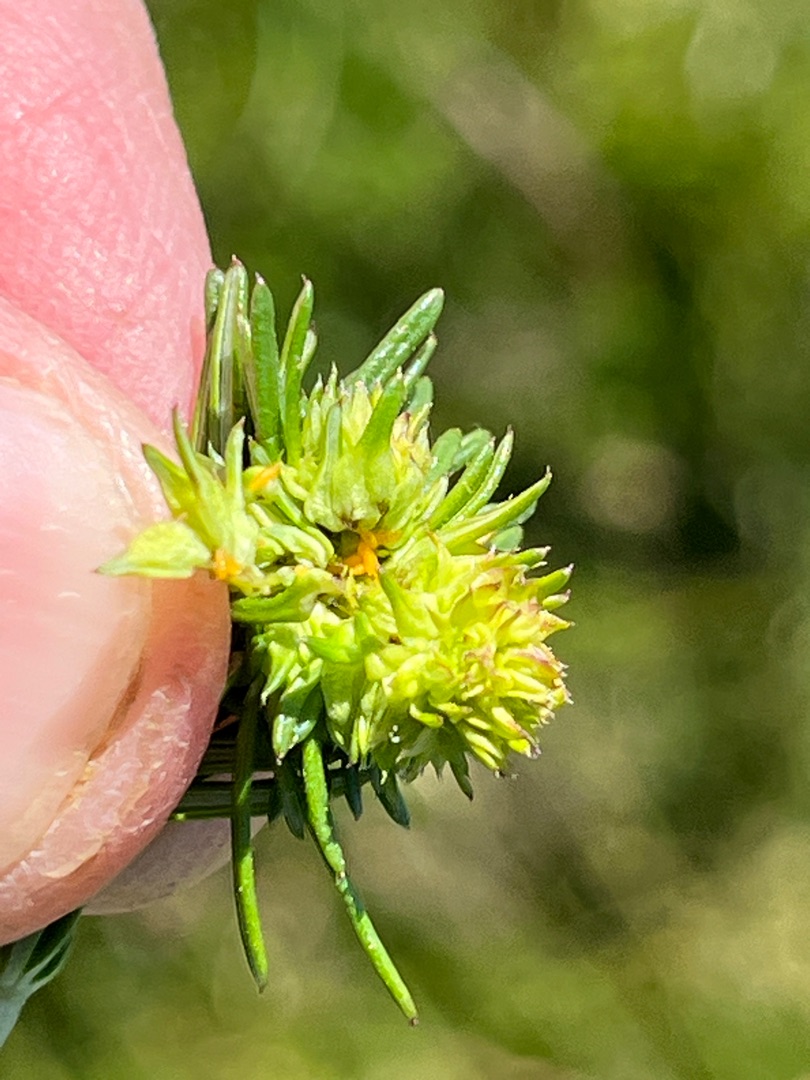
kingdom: Animalia
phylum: Arthropoda
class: Insecta
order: Diptera
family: Cecidomyiidae
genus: Contarinia
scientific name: Contarinia perplicata
